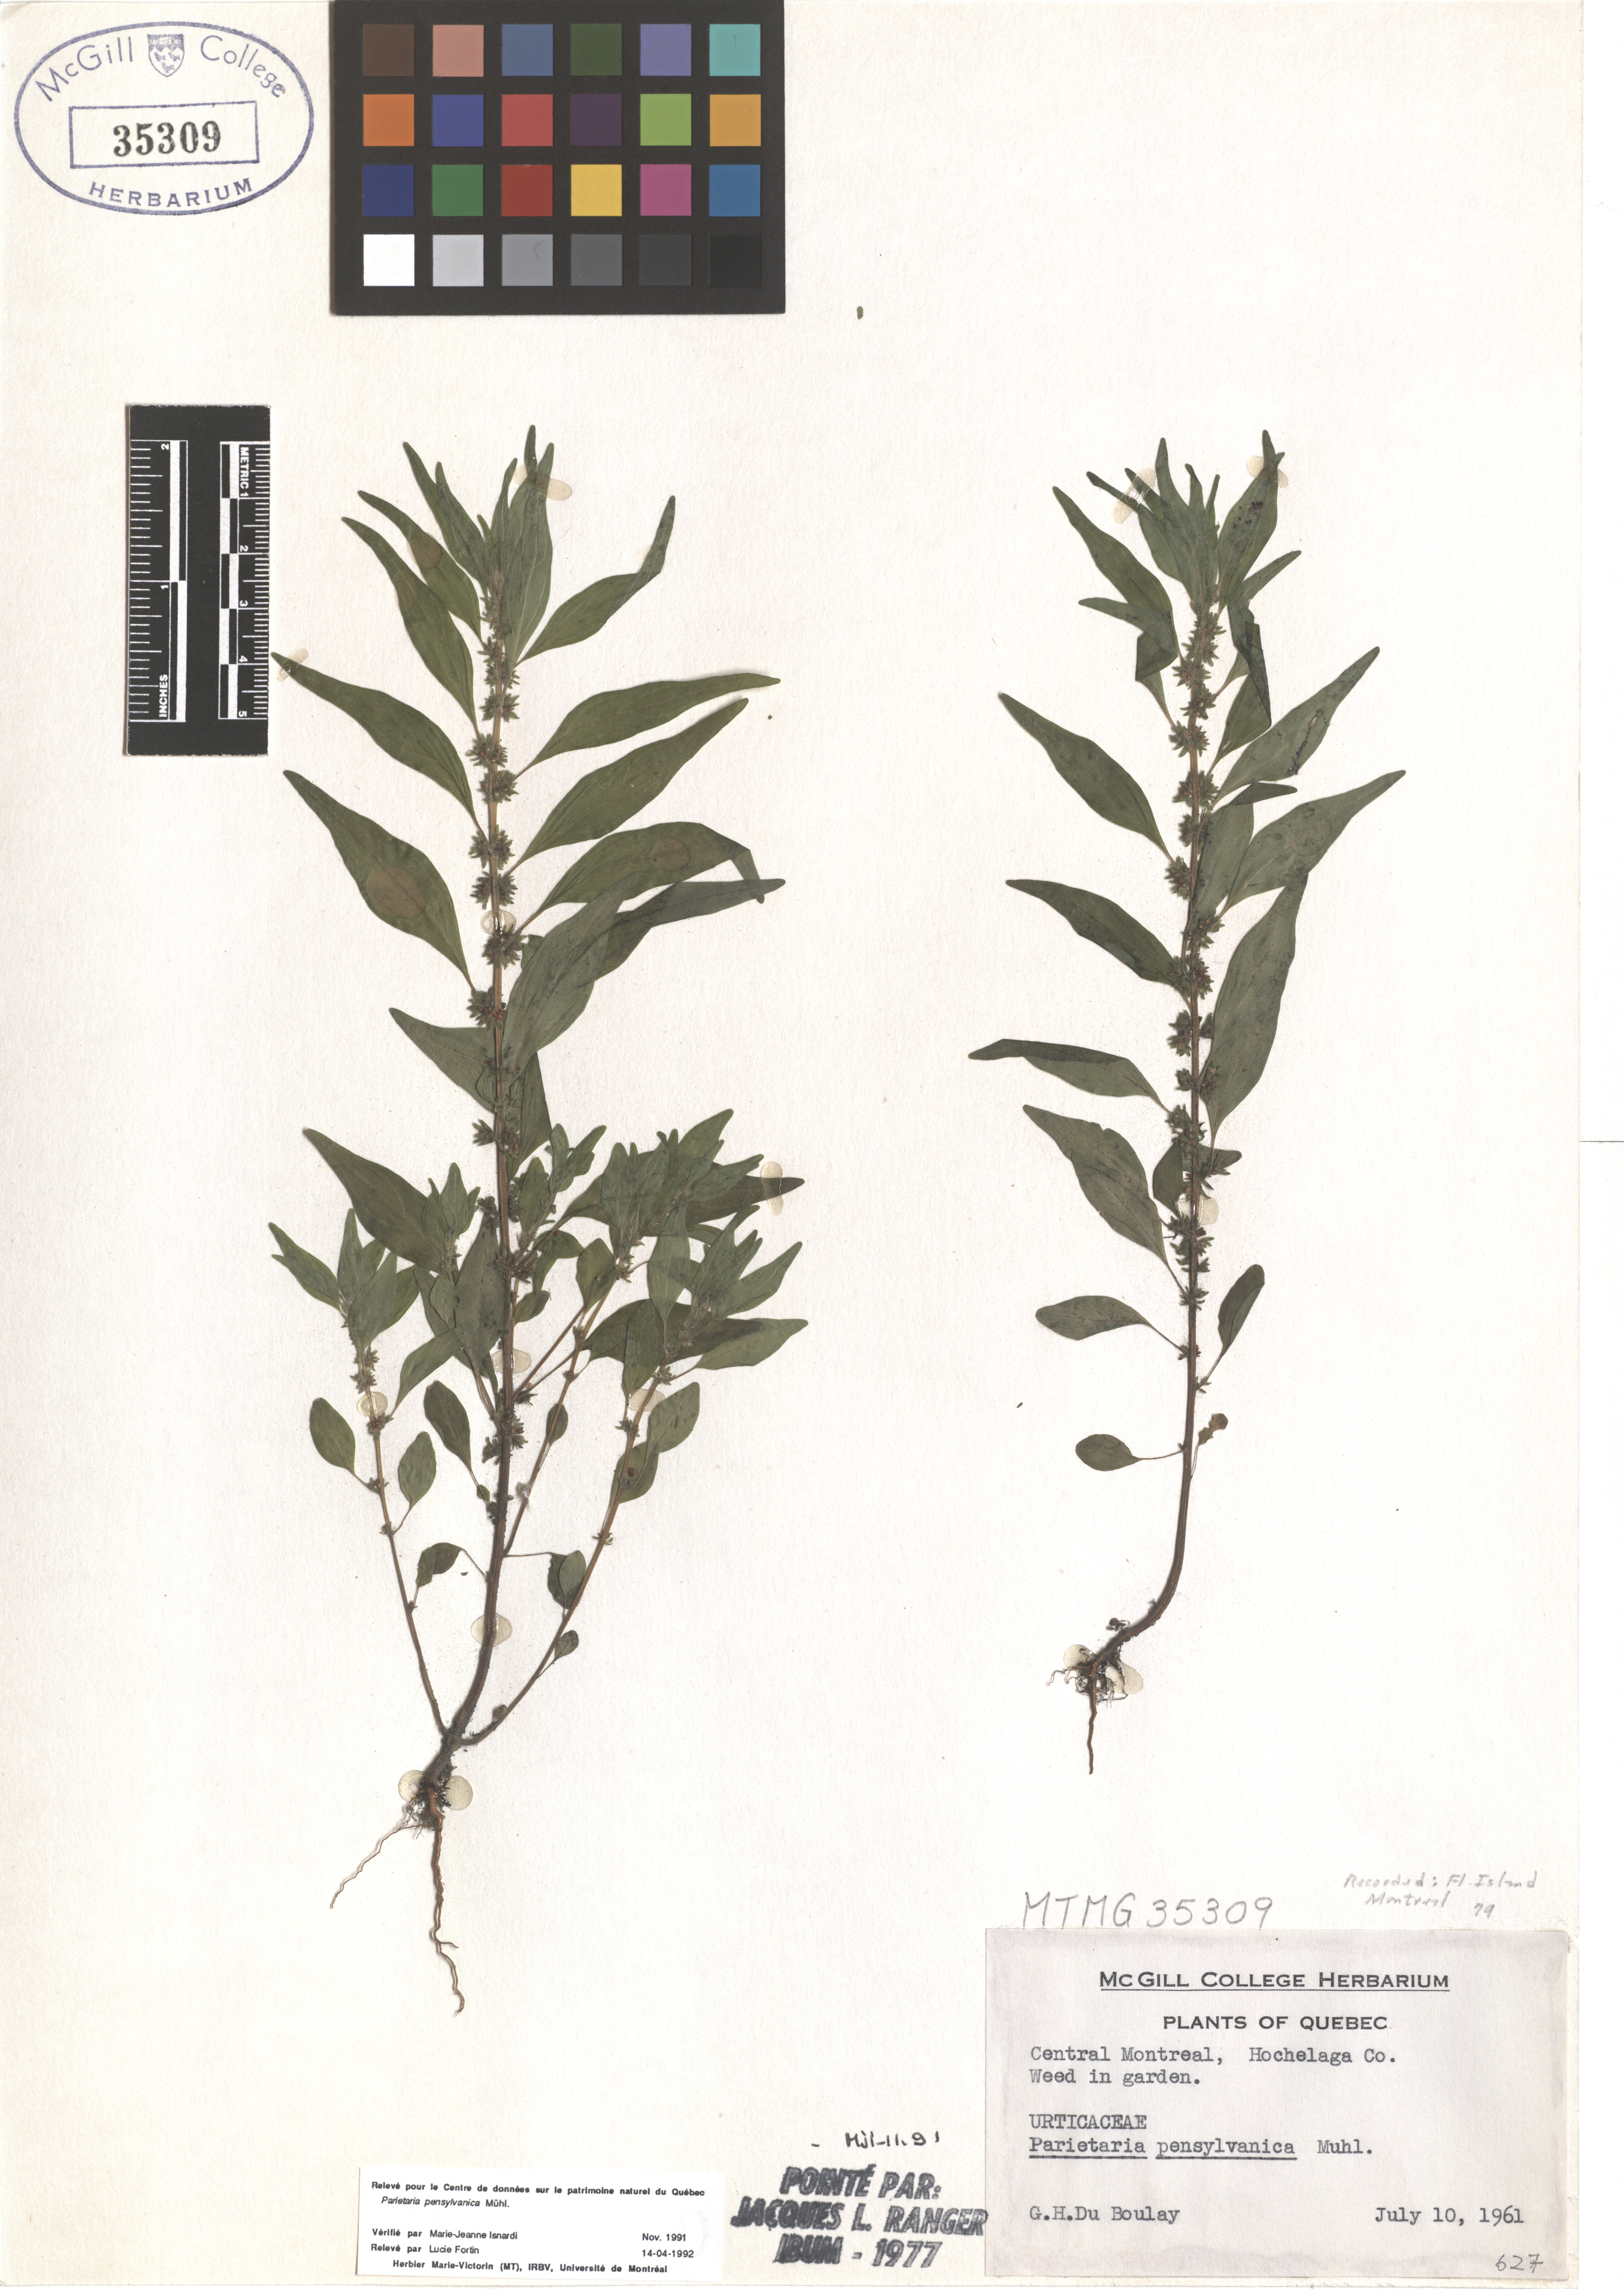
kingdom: Plantae
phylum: Tracheophyta
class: Magnoliopsida
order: Rosales
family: Urticaceae
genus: Parietaria
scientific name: Parietaria pensylvanica
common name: Pennsylvania pellitory
